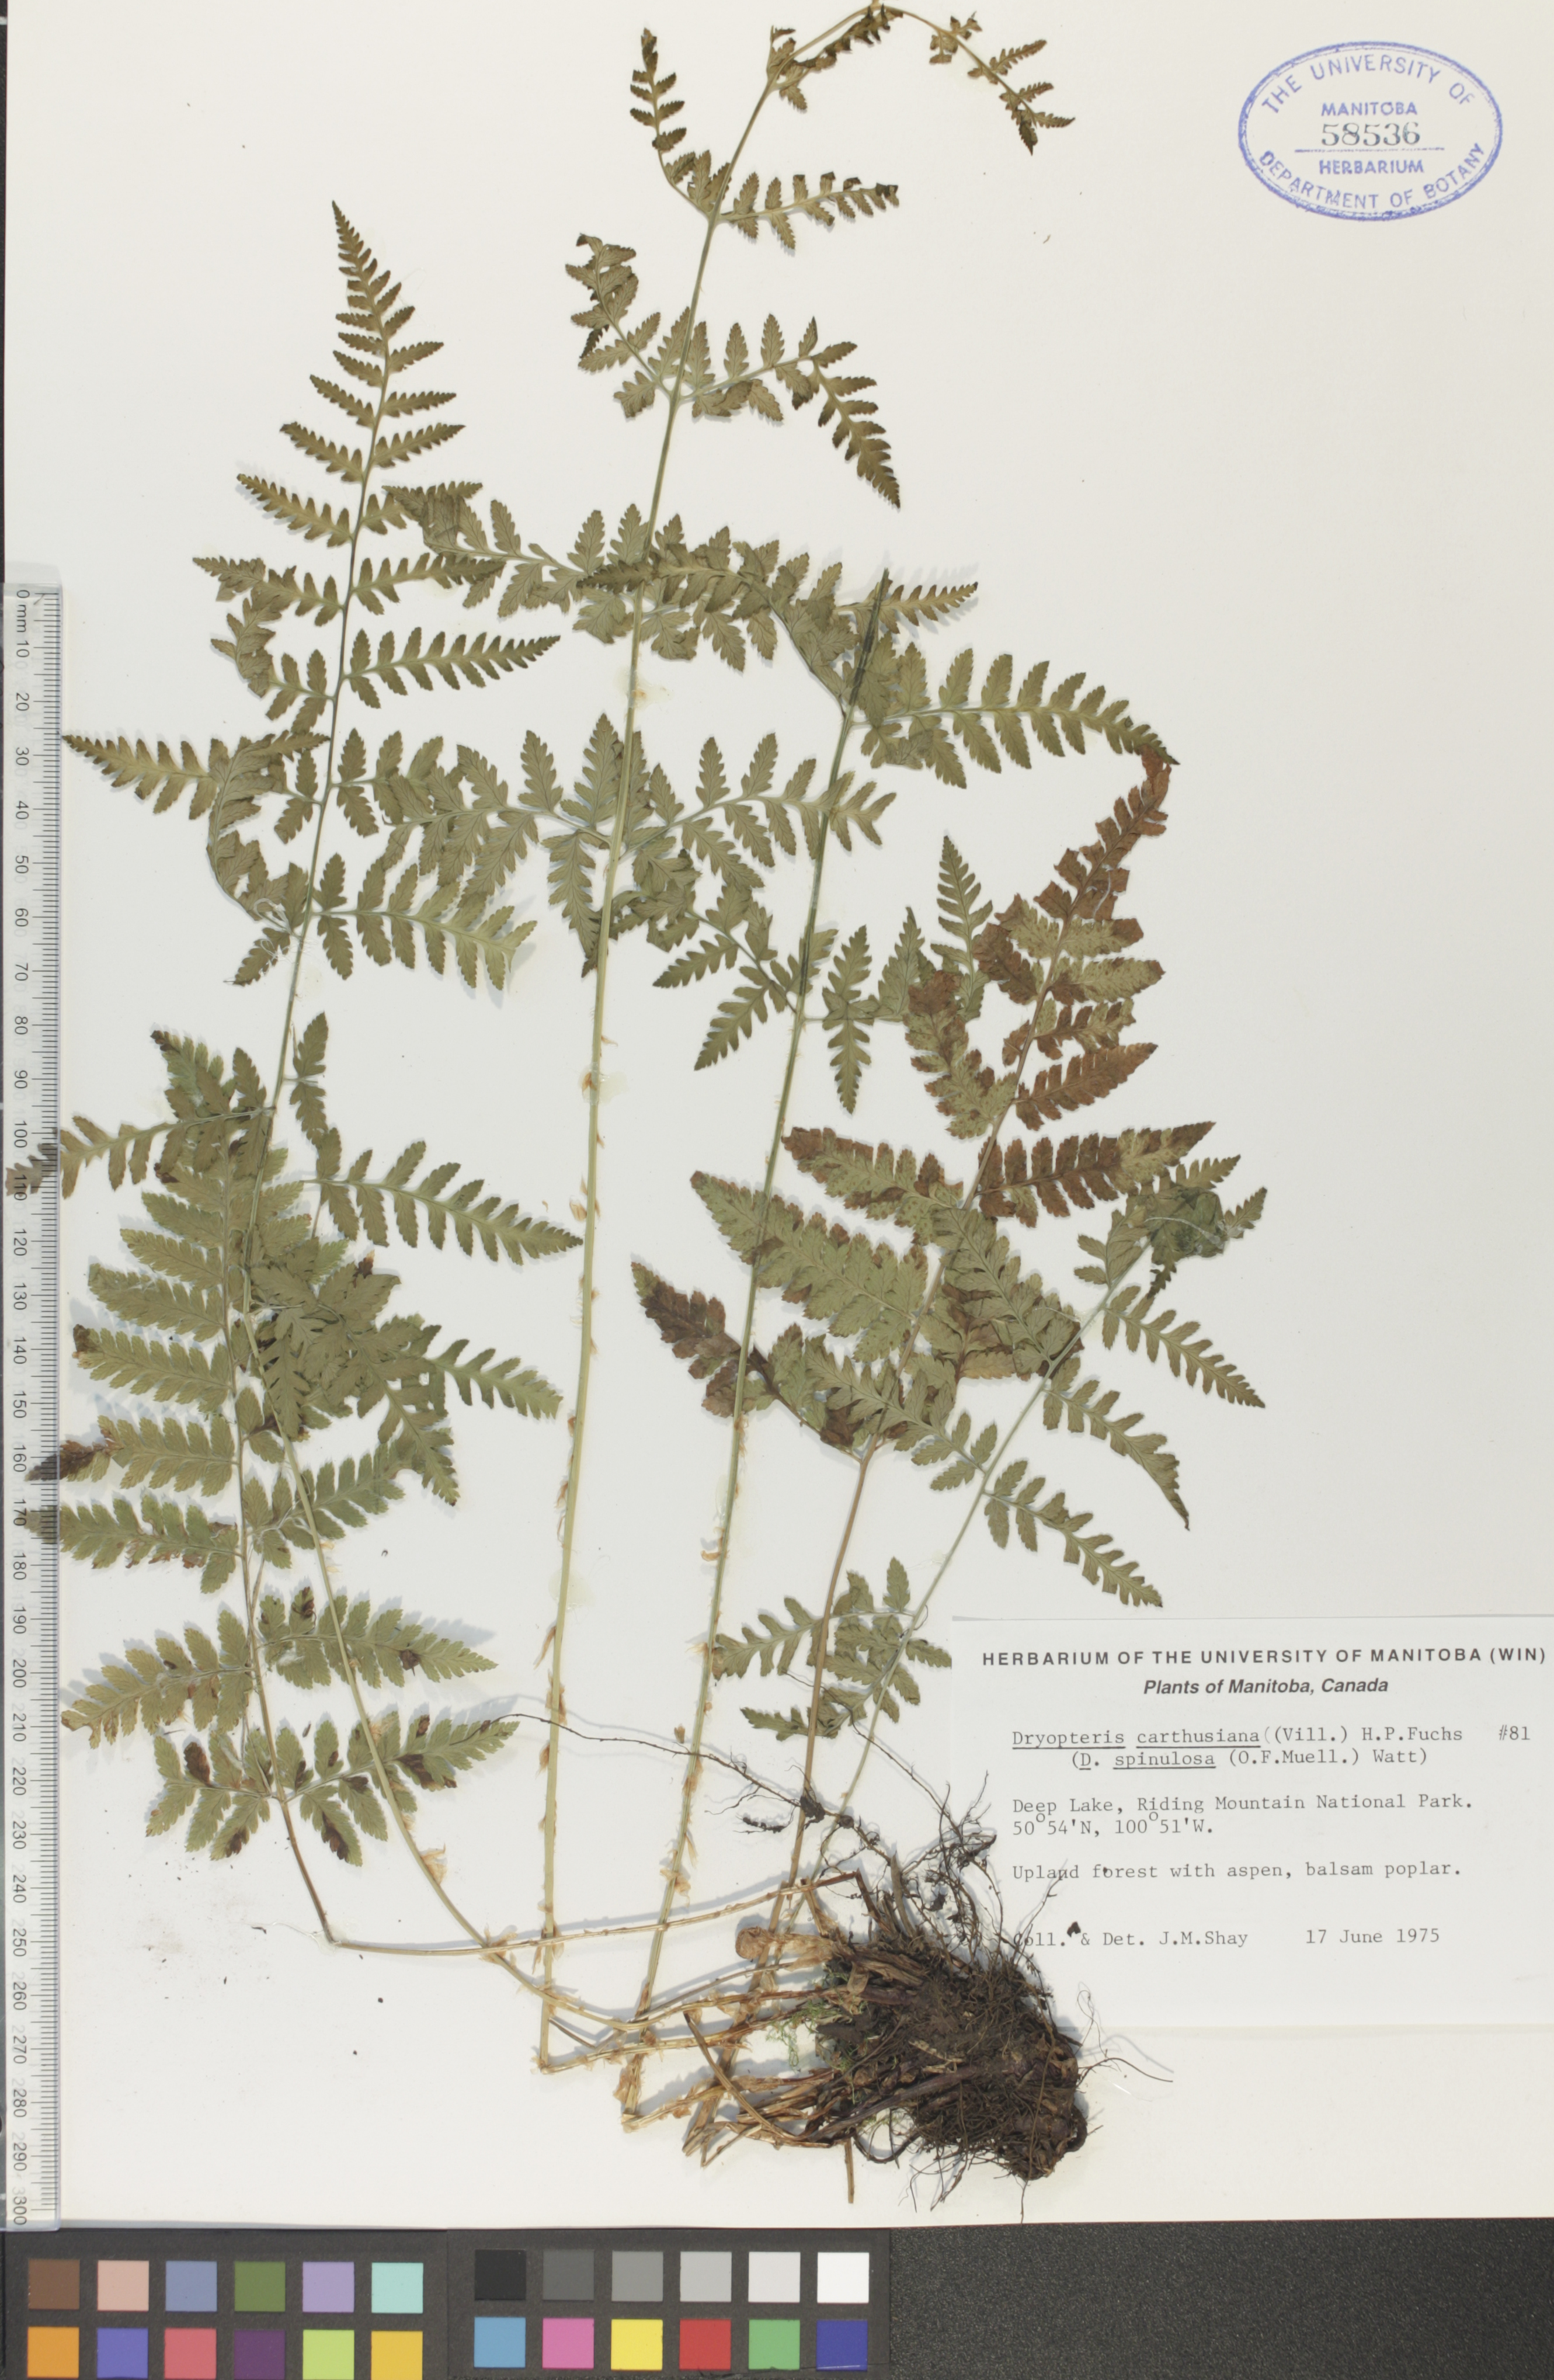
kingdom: Plantae
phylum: Tracheophyta
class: Polypodiopsida
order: Polypodiales
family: Dryopteridaceae
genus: Dryopteris
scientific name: Dryopteris carthusiana
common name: Narrow buckler-fern
